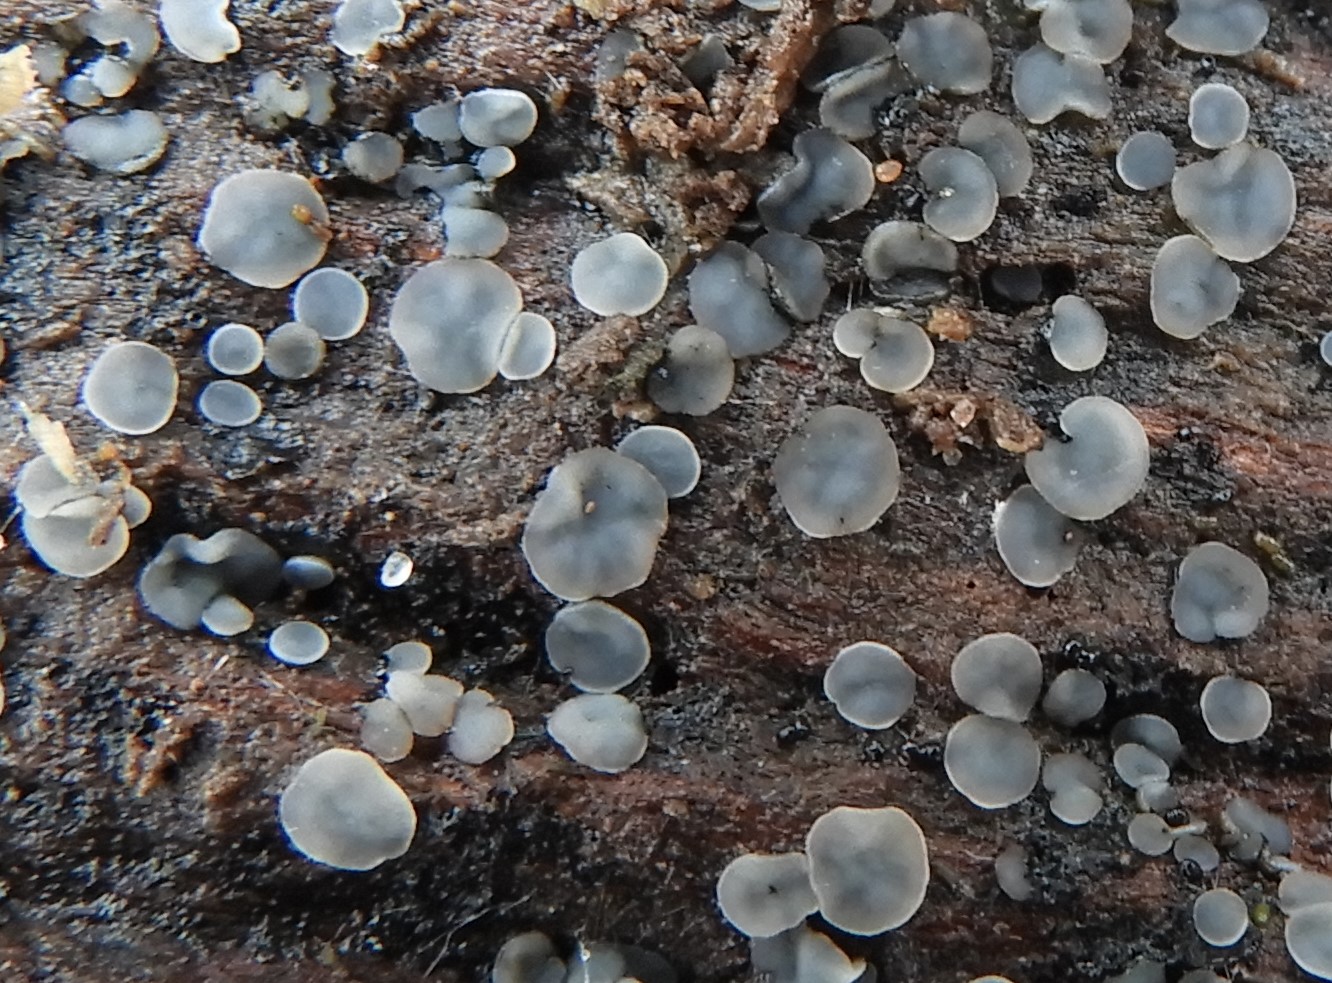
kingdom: Fungi
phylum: Ascomycota
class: Leotiomycetes
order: Helotiales
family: Mollisiaceae
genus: Mollisia
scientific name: Mollisia cinerea
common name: almindelig gråskive
